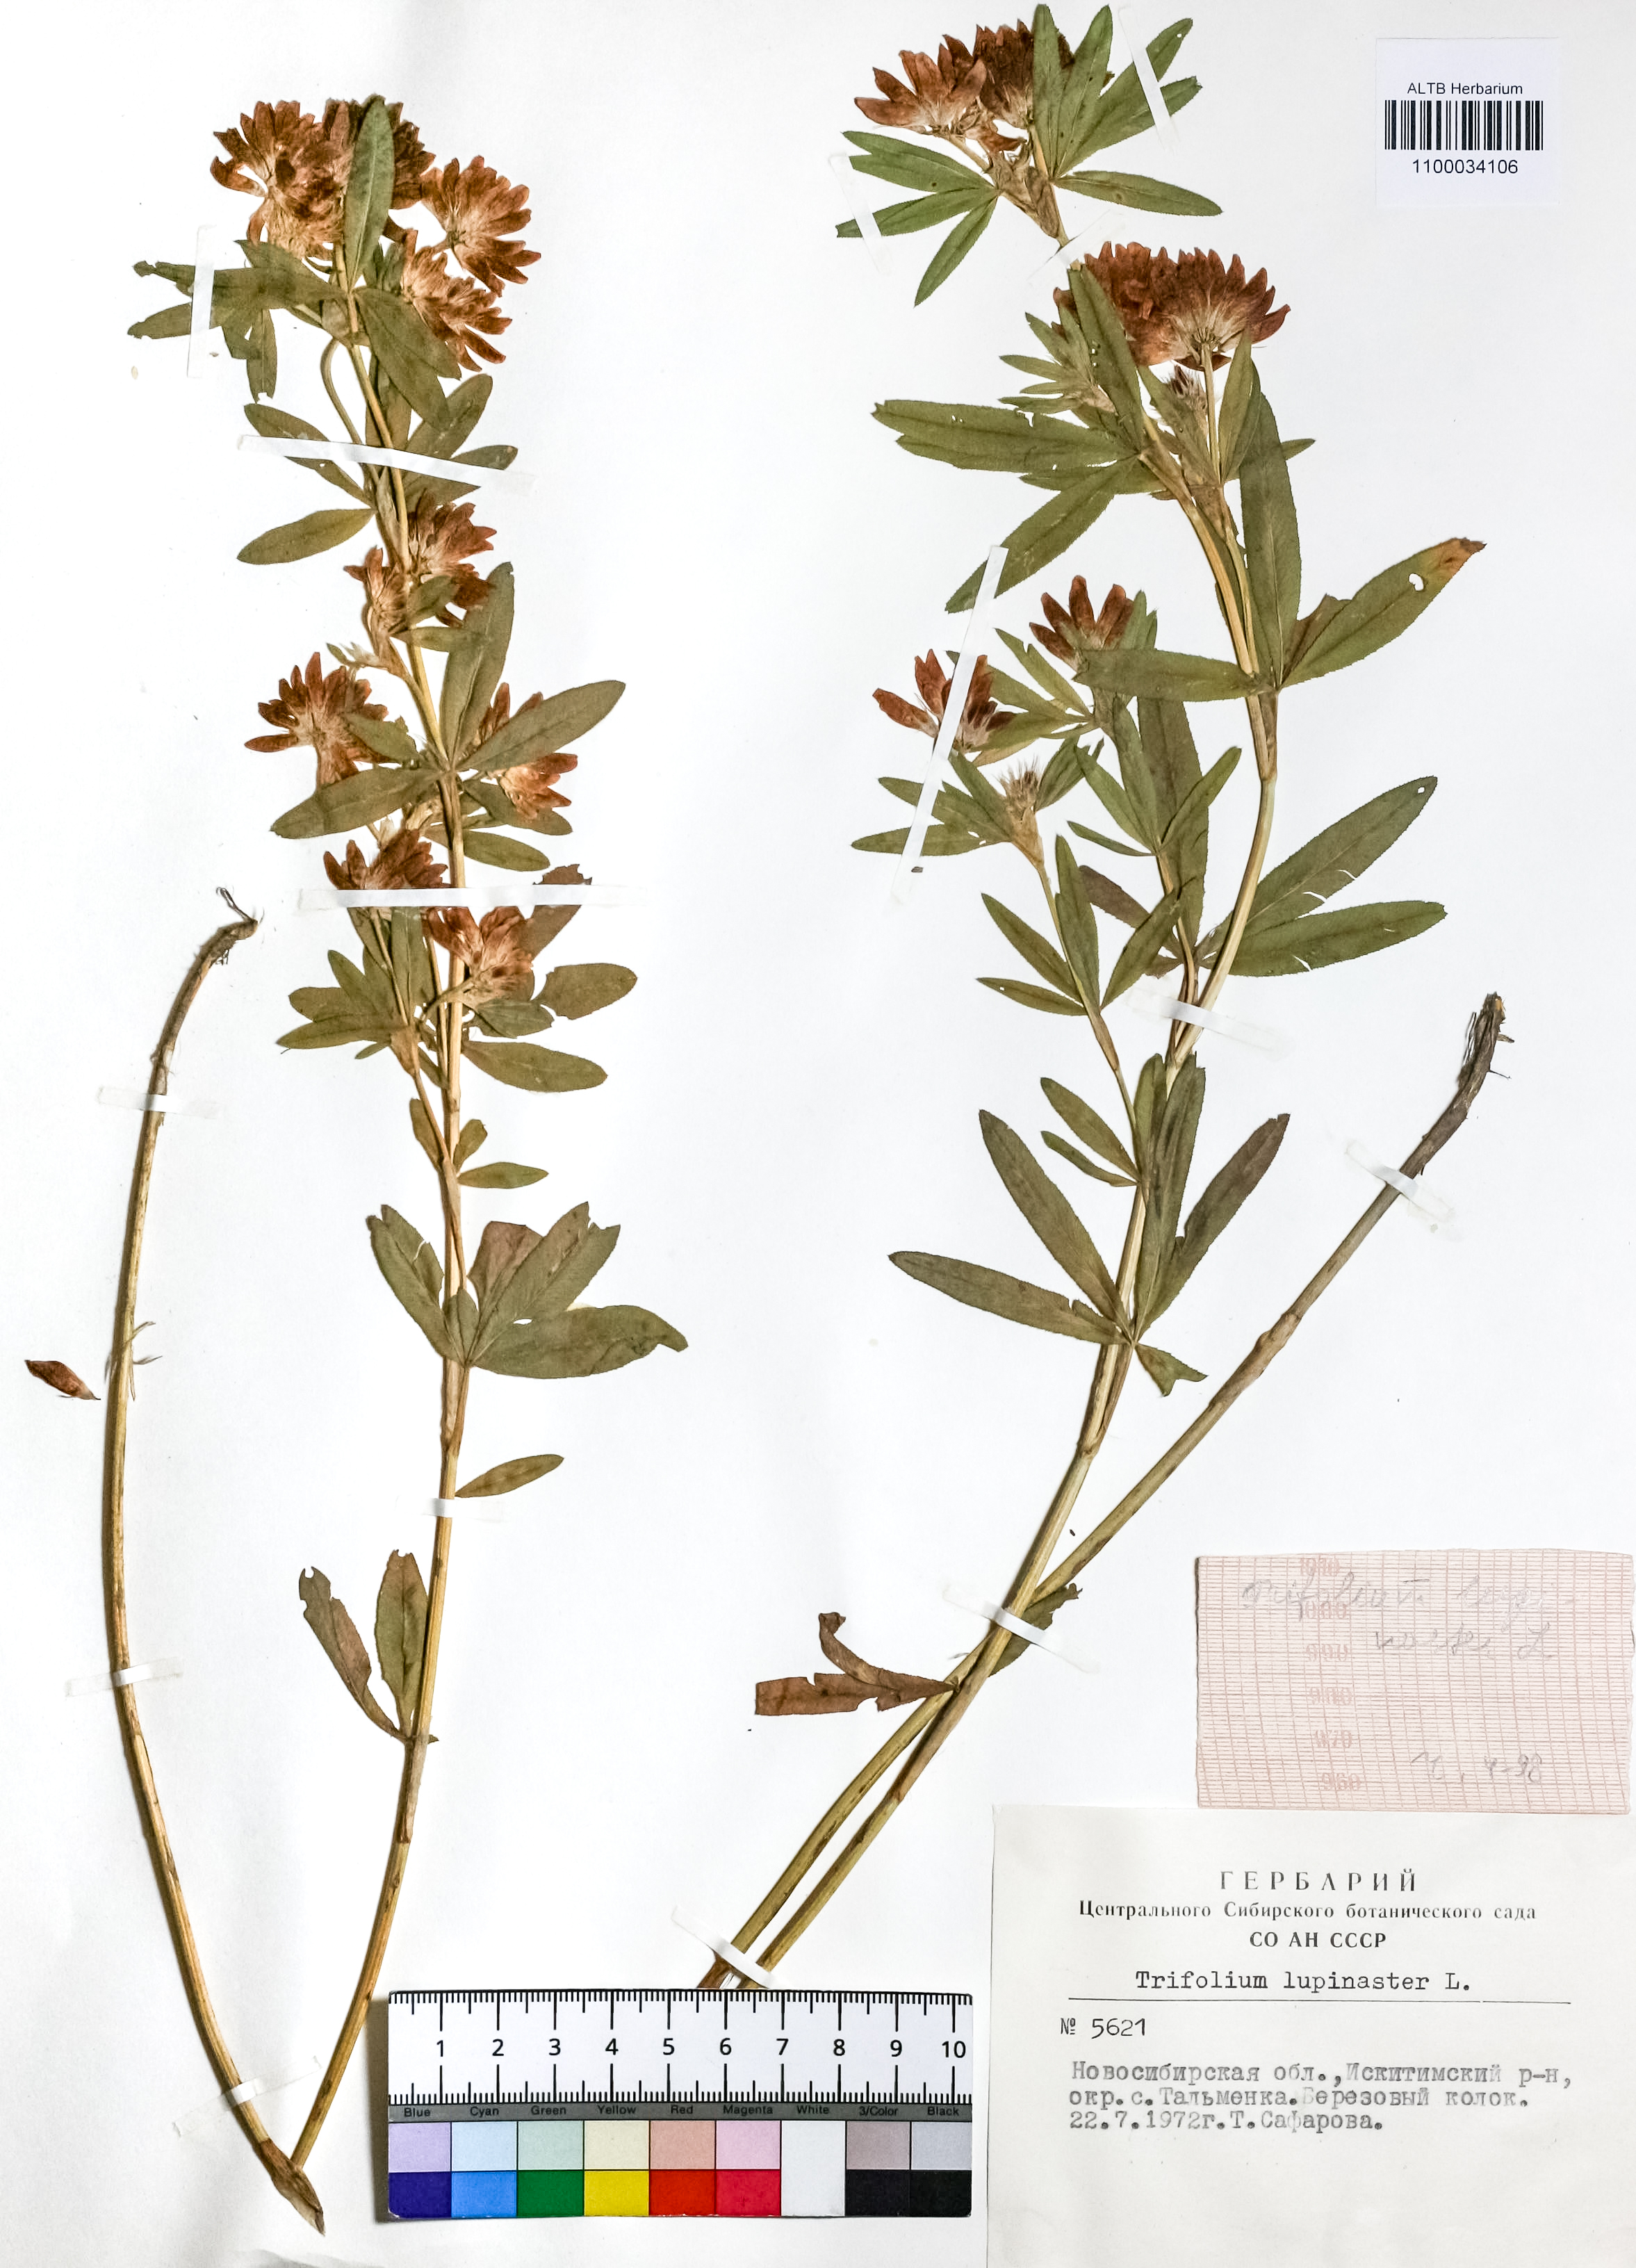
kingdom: Plantae
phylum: Tracheophyta
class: Magnoliopsida
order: Fabales
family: Fabaceae
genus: Trifolium
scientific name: Trifolium lupinaster
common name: Lupine clover
